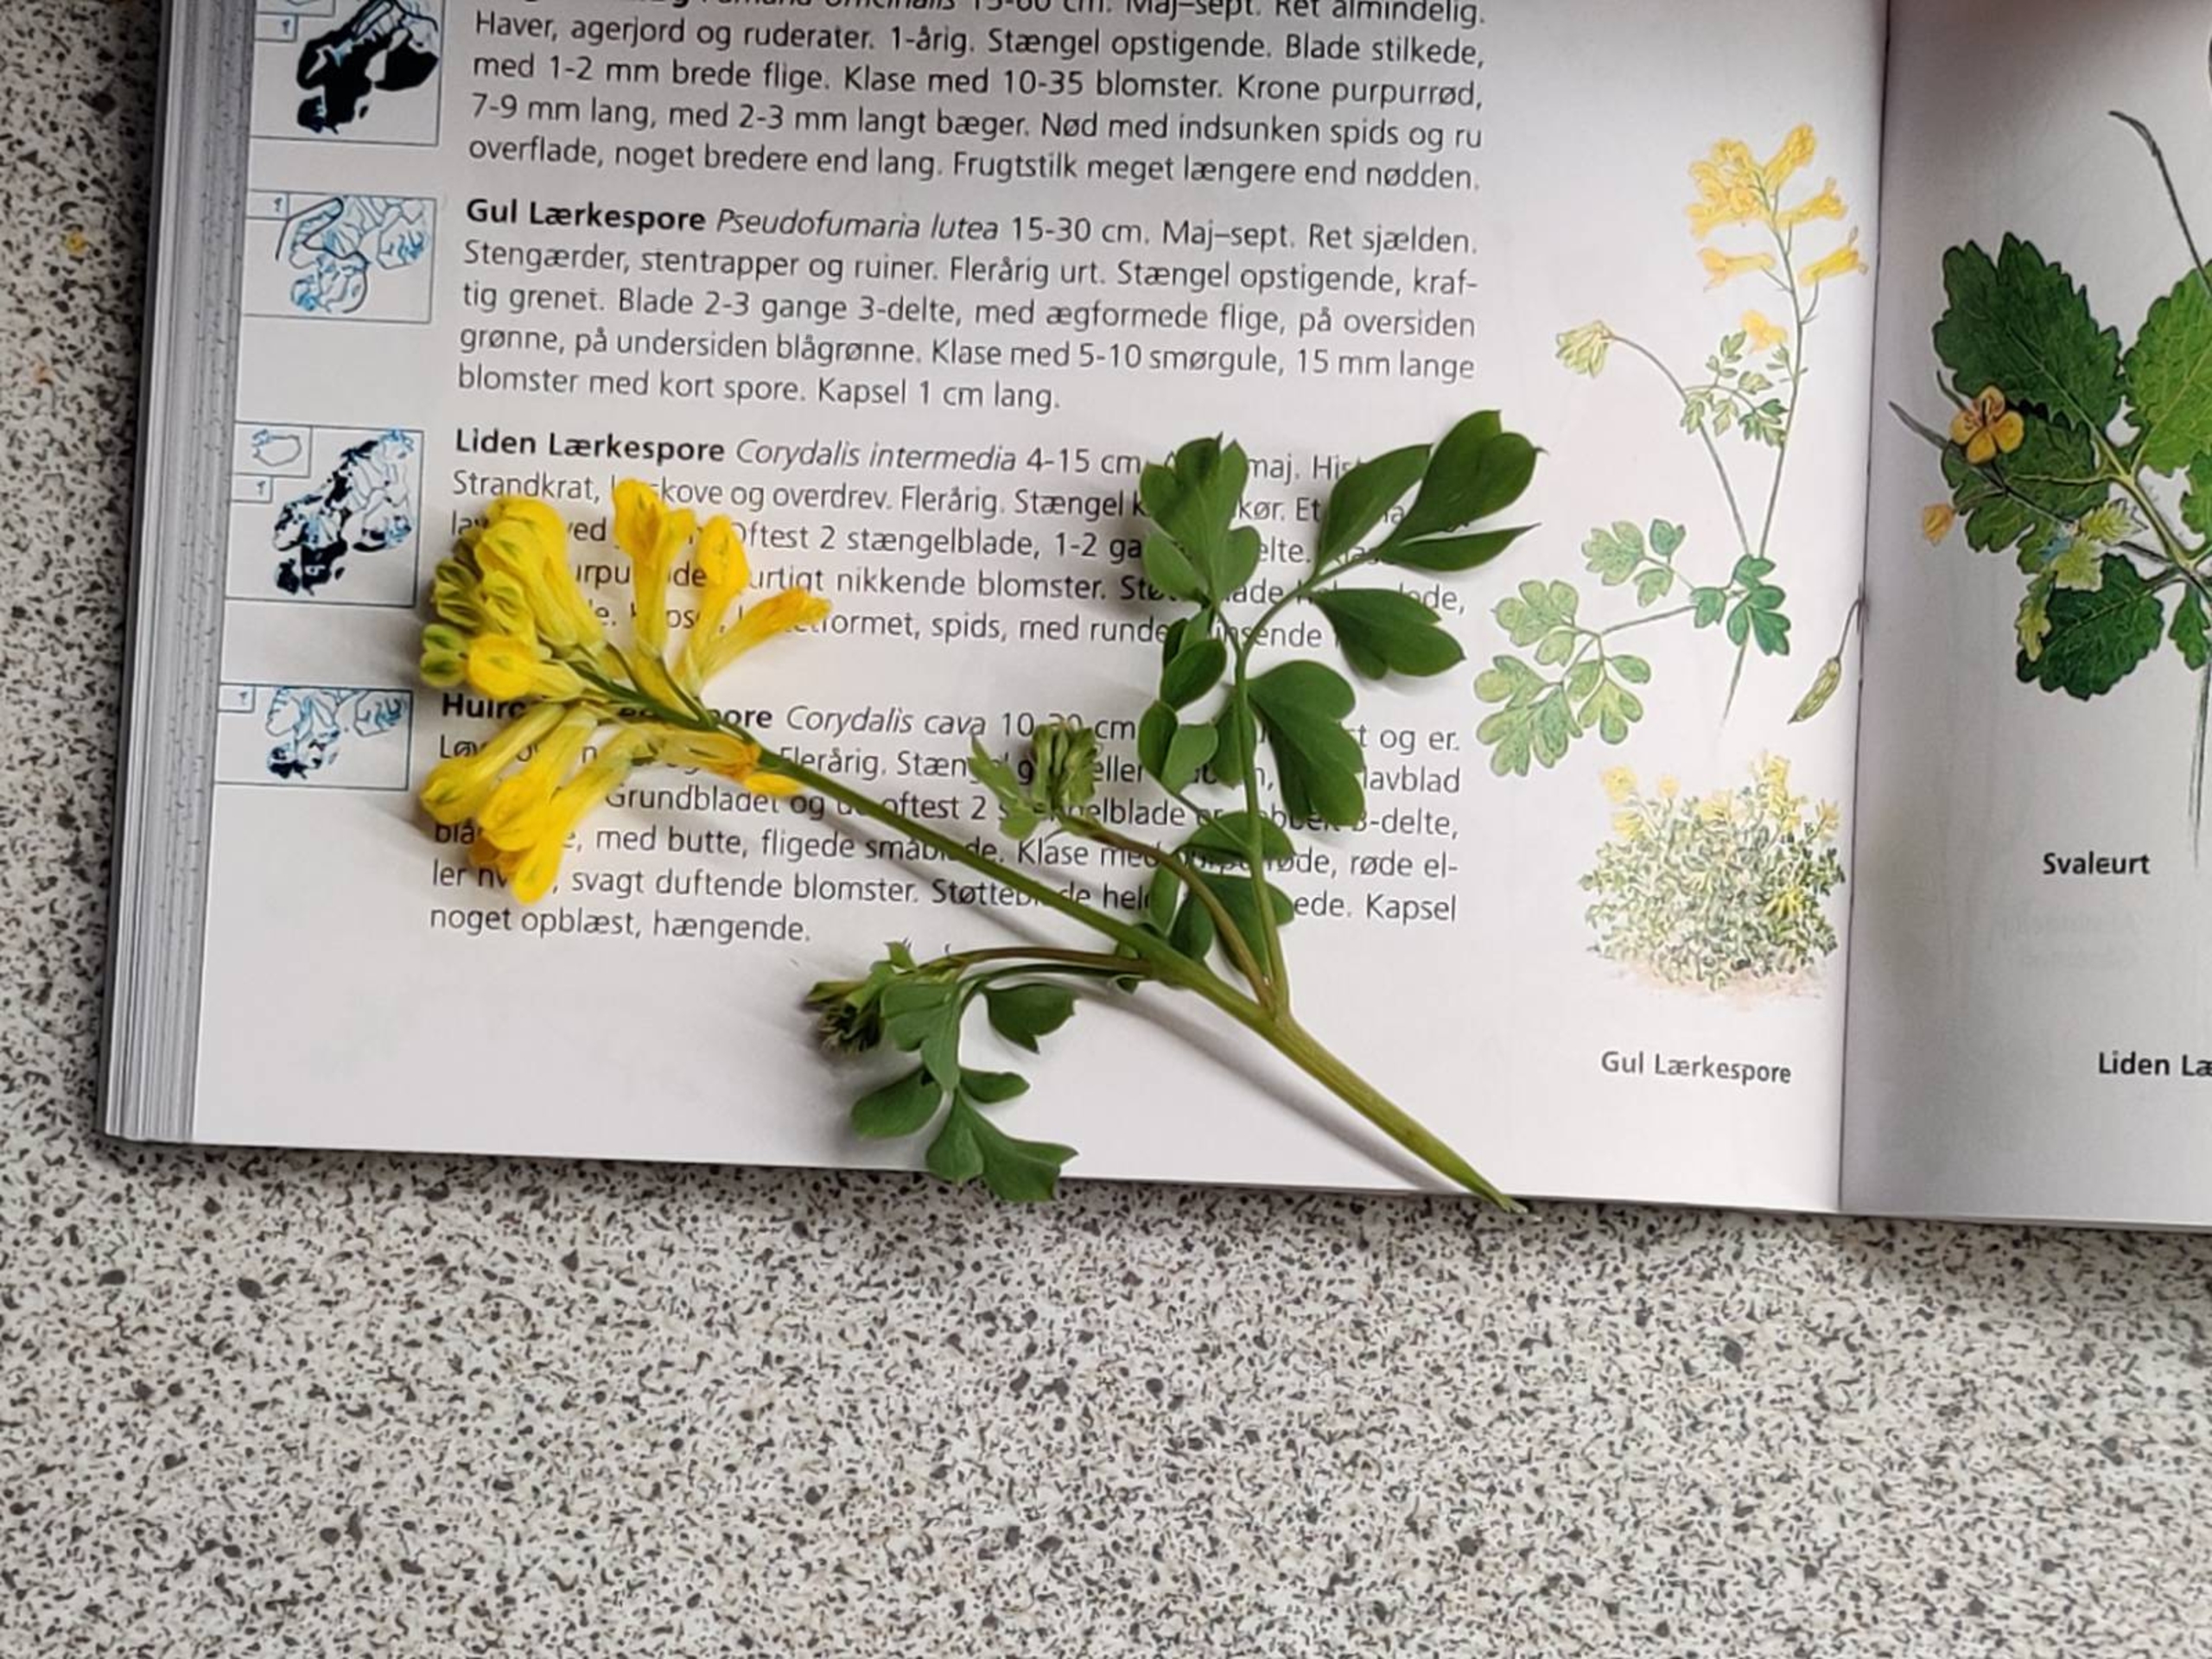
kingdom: Plantae
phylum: Tracheophyta
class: Magnoliopsida
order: Ranunculales
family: Papaveraceae
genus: Pseudofumaria
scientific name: Pseudofumaria lutea
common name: Gul lærkespore
